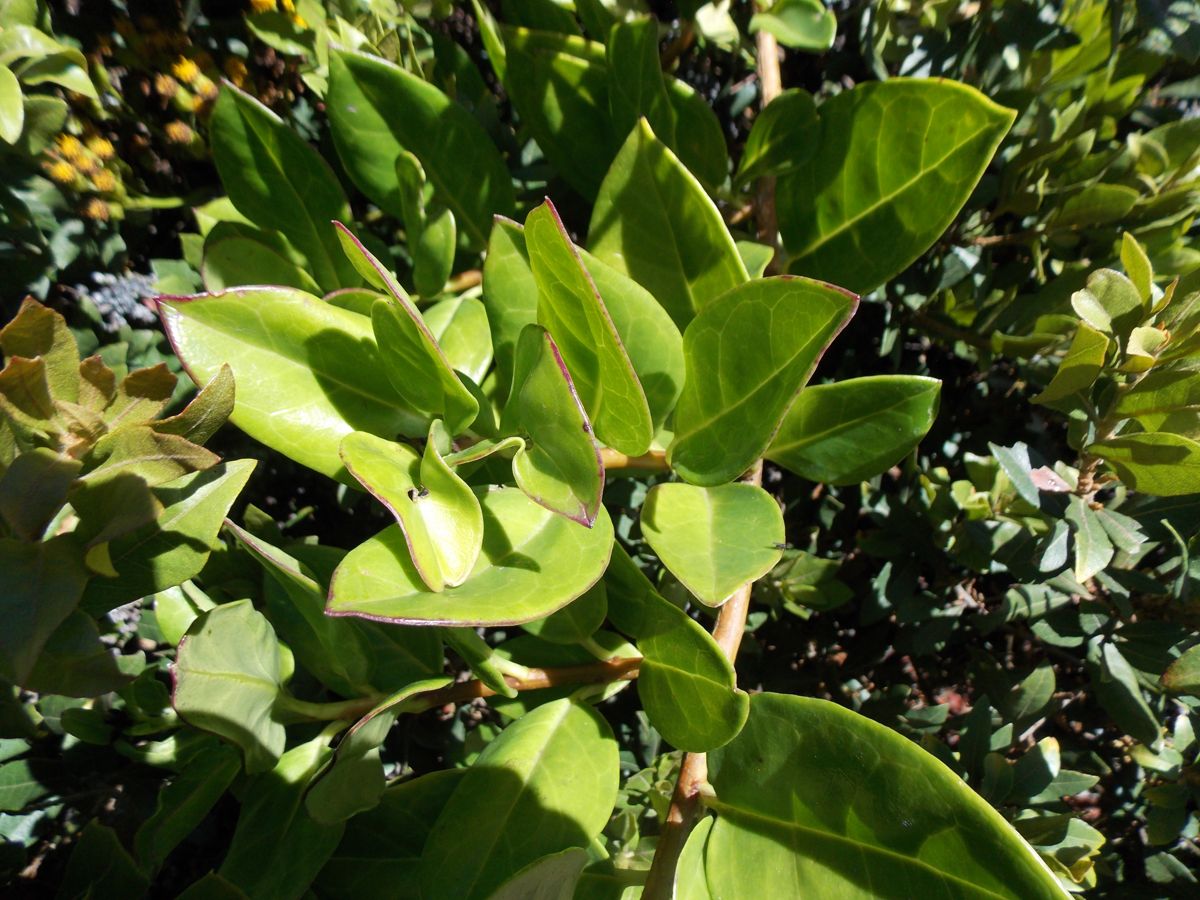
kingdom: Plantae
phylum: Tracheophyta
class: Magnoliopsida
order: Asterales
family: Asteraceae
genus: Pentacalia
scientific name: Pentacalia morazensis
